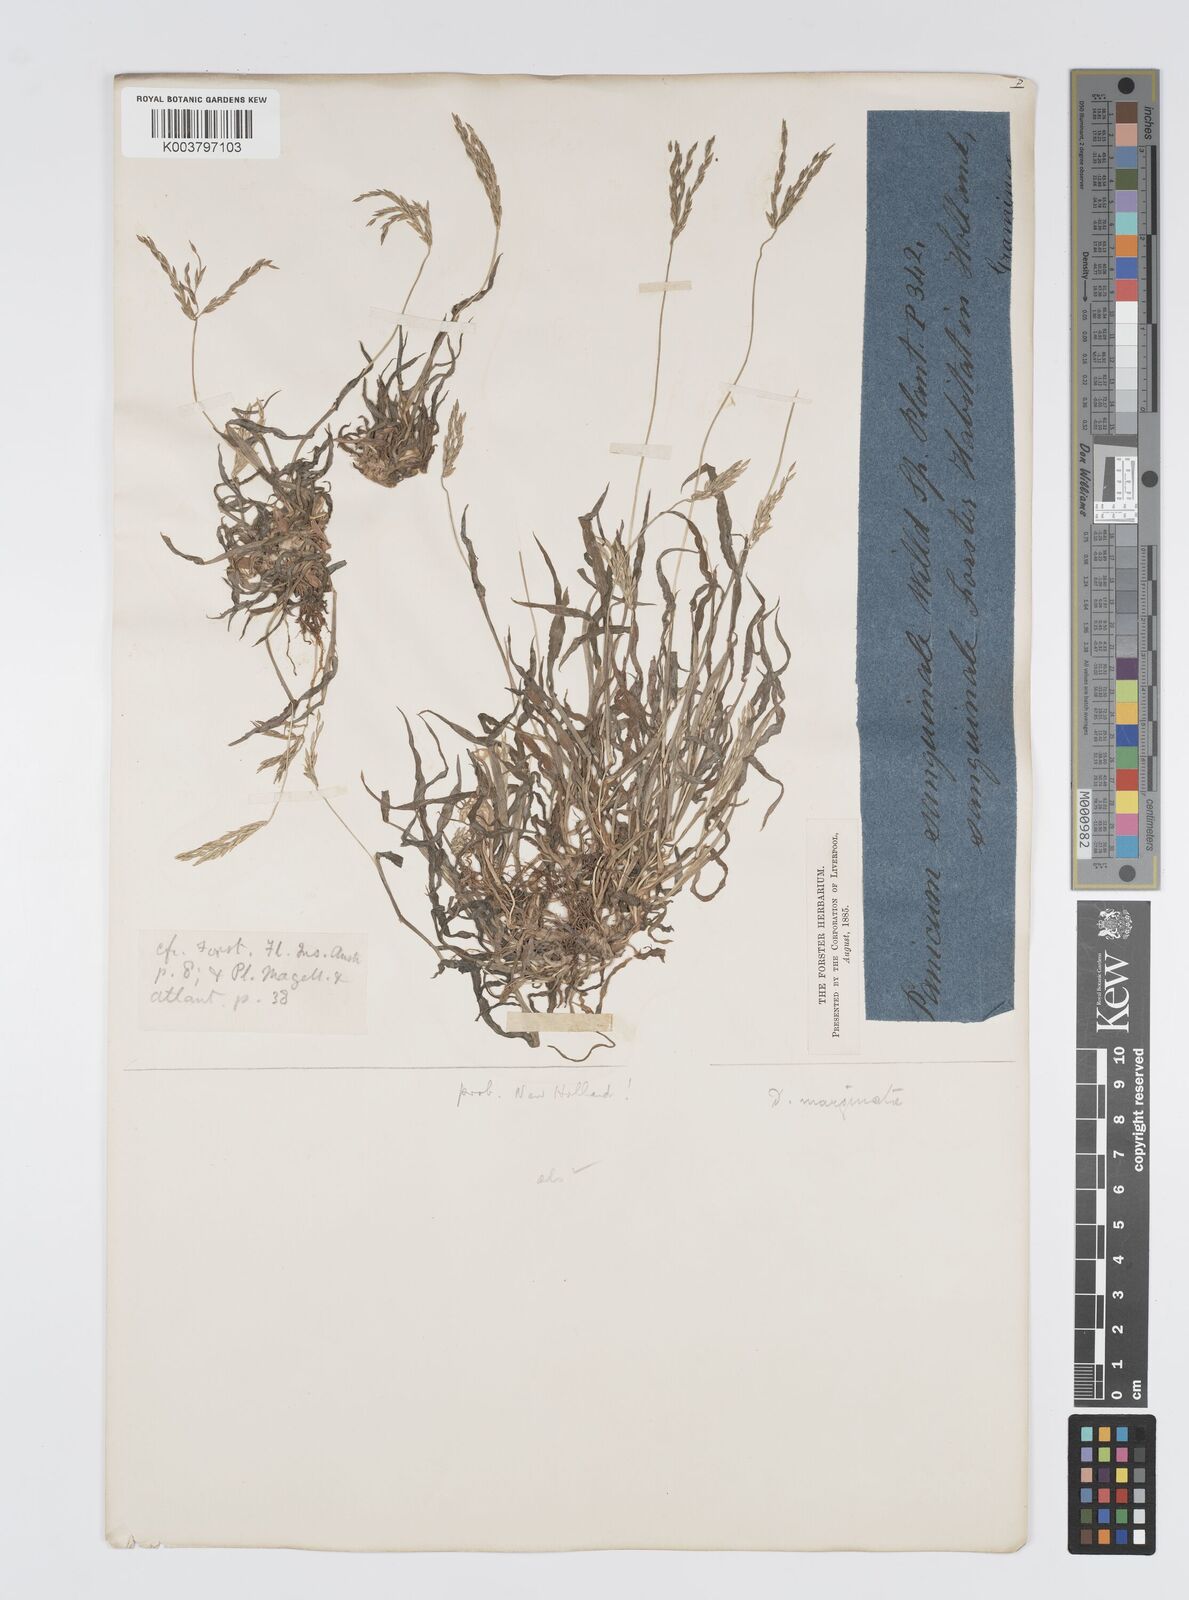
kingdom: Plantae
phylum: Tracheophyta
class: Liliopsida
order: Poales
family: Poaceae
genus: Digitaria
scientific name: Digitaria ciliaris
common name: Tropical finger-grass
